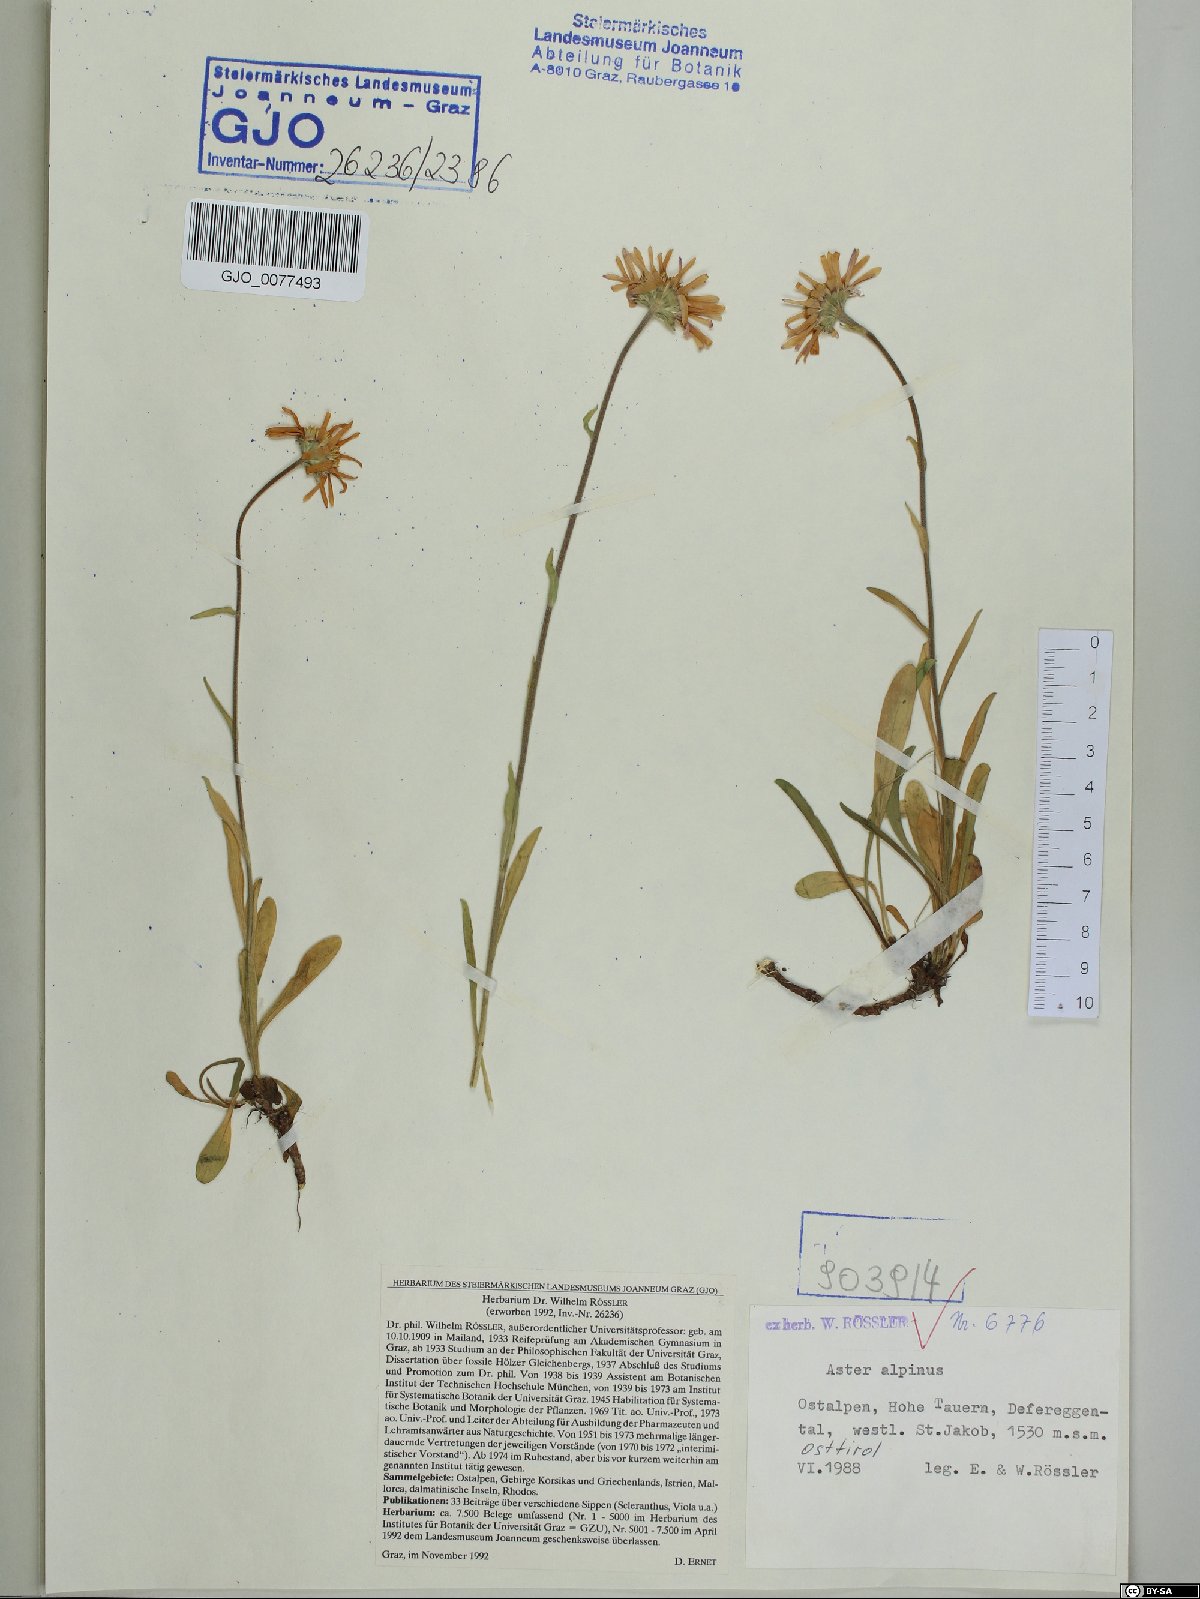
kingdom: Plantae
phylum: Tracheophyta
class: Magnoliopsida
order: Asterales
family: Asteraceae
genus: Aster
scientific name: Aster alpinus
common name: Alpine aster
